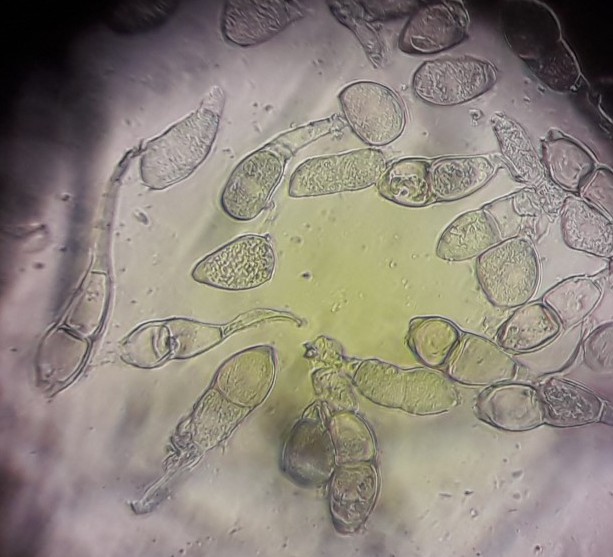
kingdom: Fungi
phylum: Basidiomycota
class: Pucciniomycetes
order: Pucciniales
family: Pucciniaceae
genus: Puccinia
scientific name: Puccinia albulensis
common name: Alpine veronica rust
